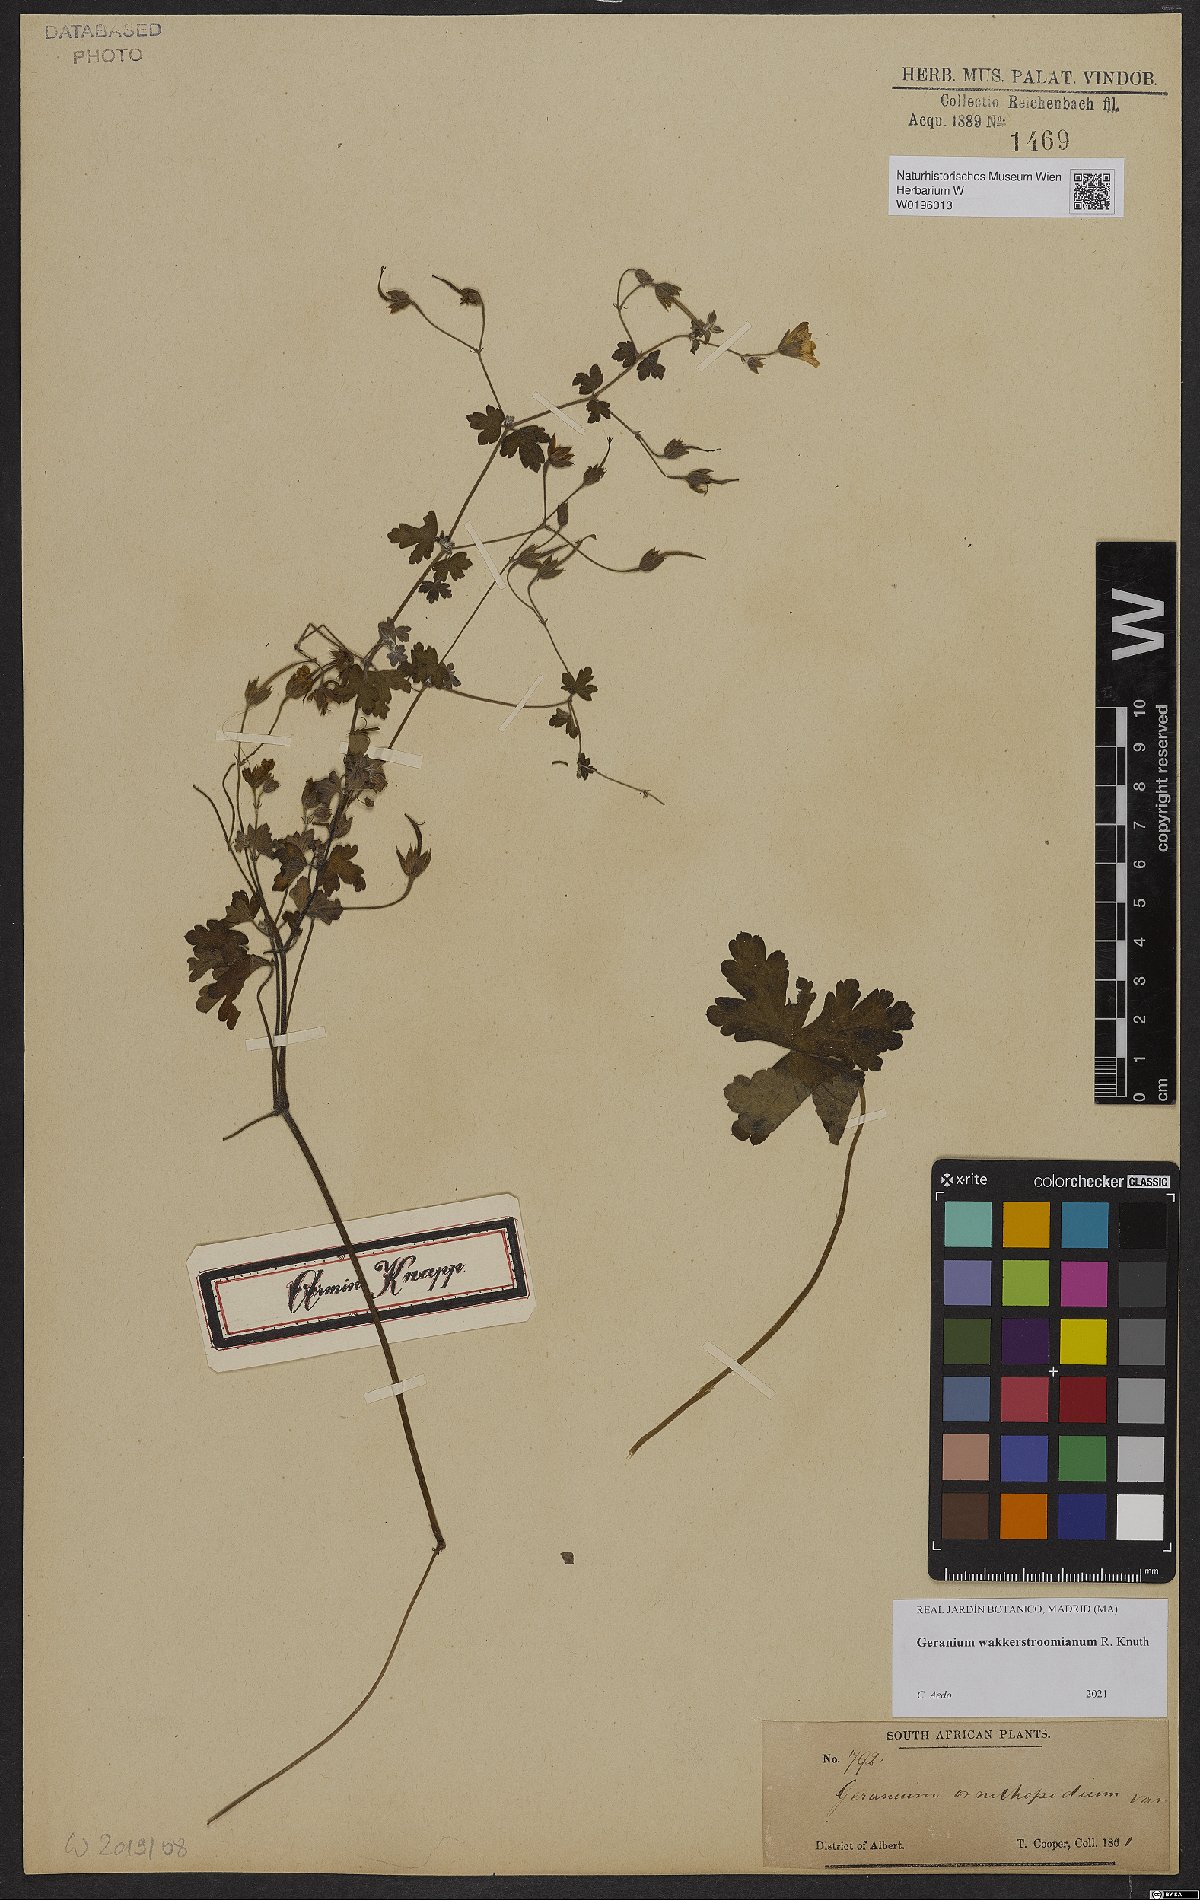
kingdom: Plantae
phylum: Tracheophyta
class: Magnoliopsida
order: Geraniales
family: Geraniaceae
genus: Geranium
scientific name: Geranium wakkerstroomianum
